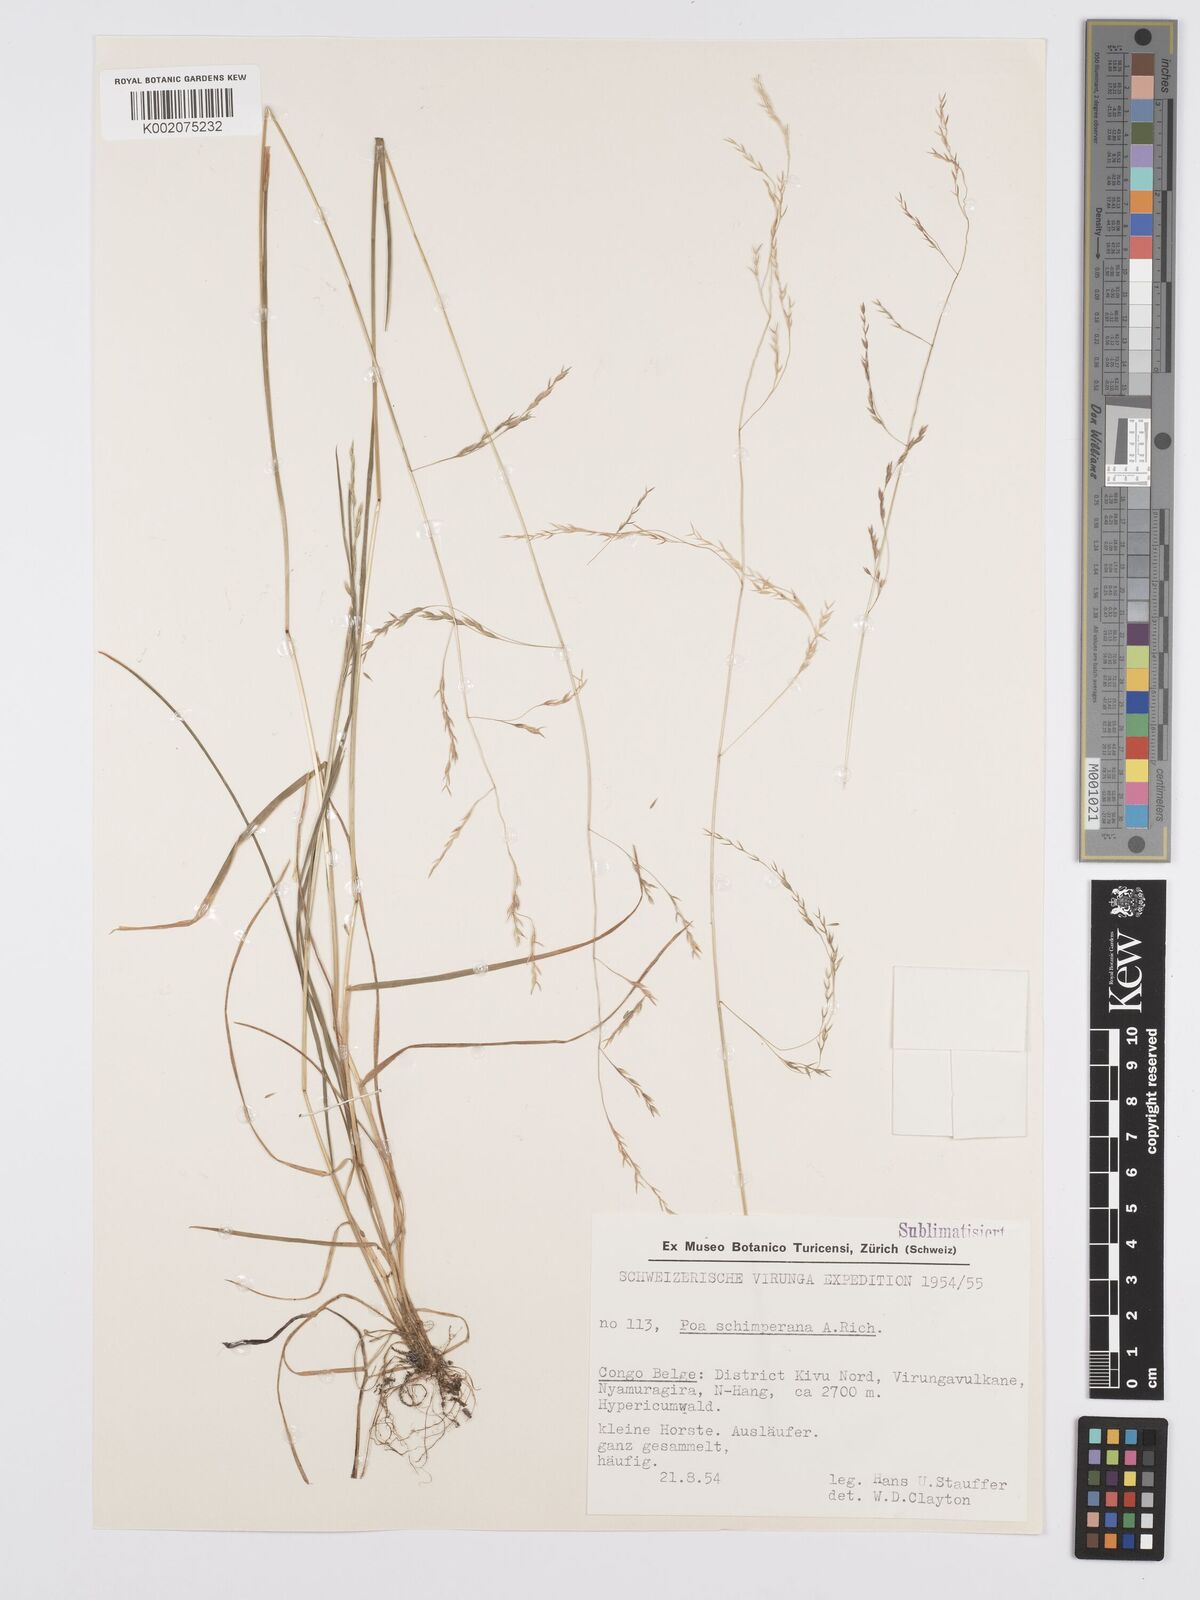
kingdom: Plantae
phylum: Tracheophyta
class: Liliopsida
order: Poales
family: Poaceae
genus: Poa
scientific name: Poa schimperiana
